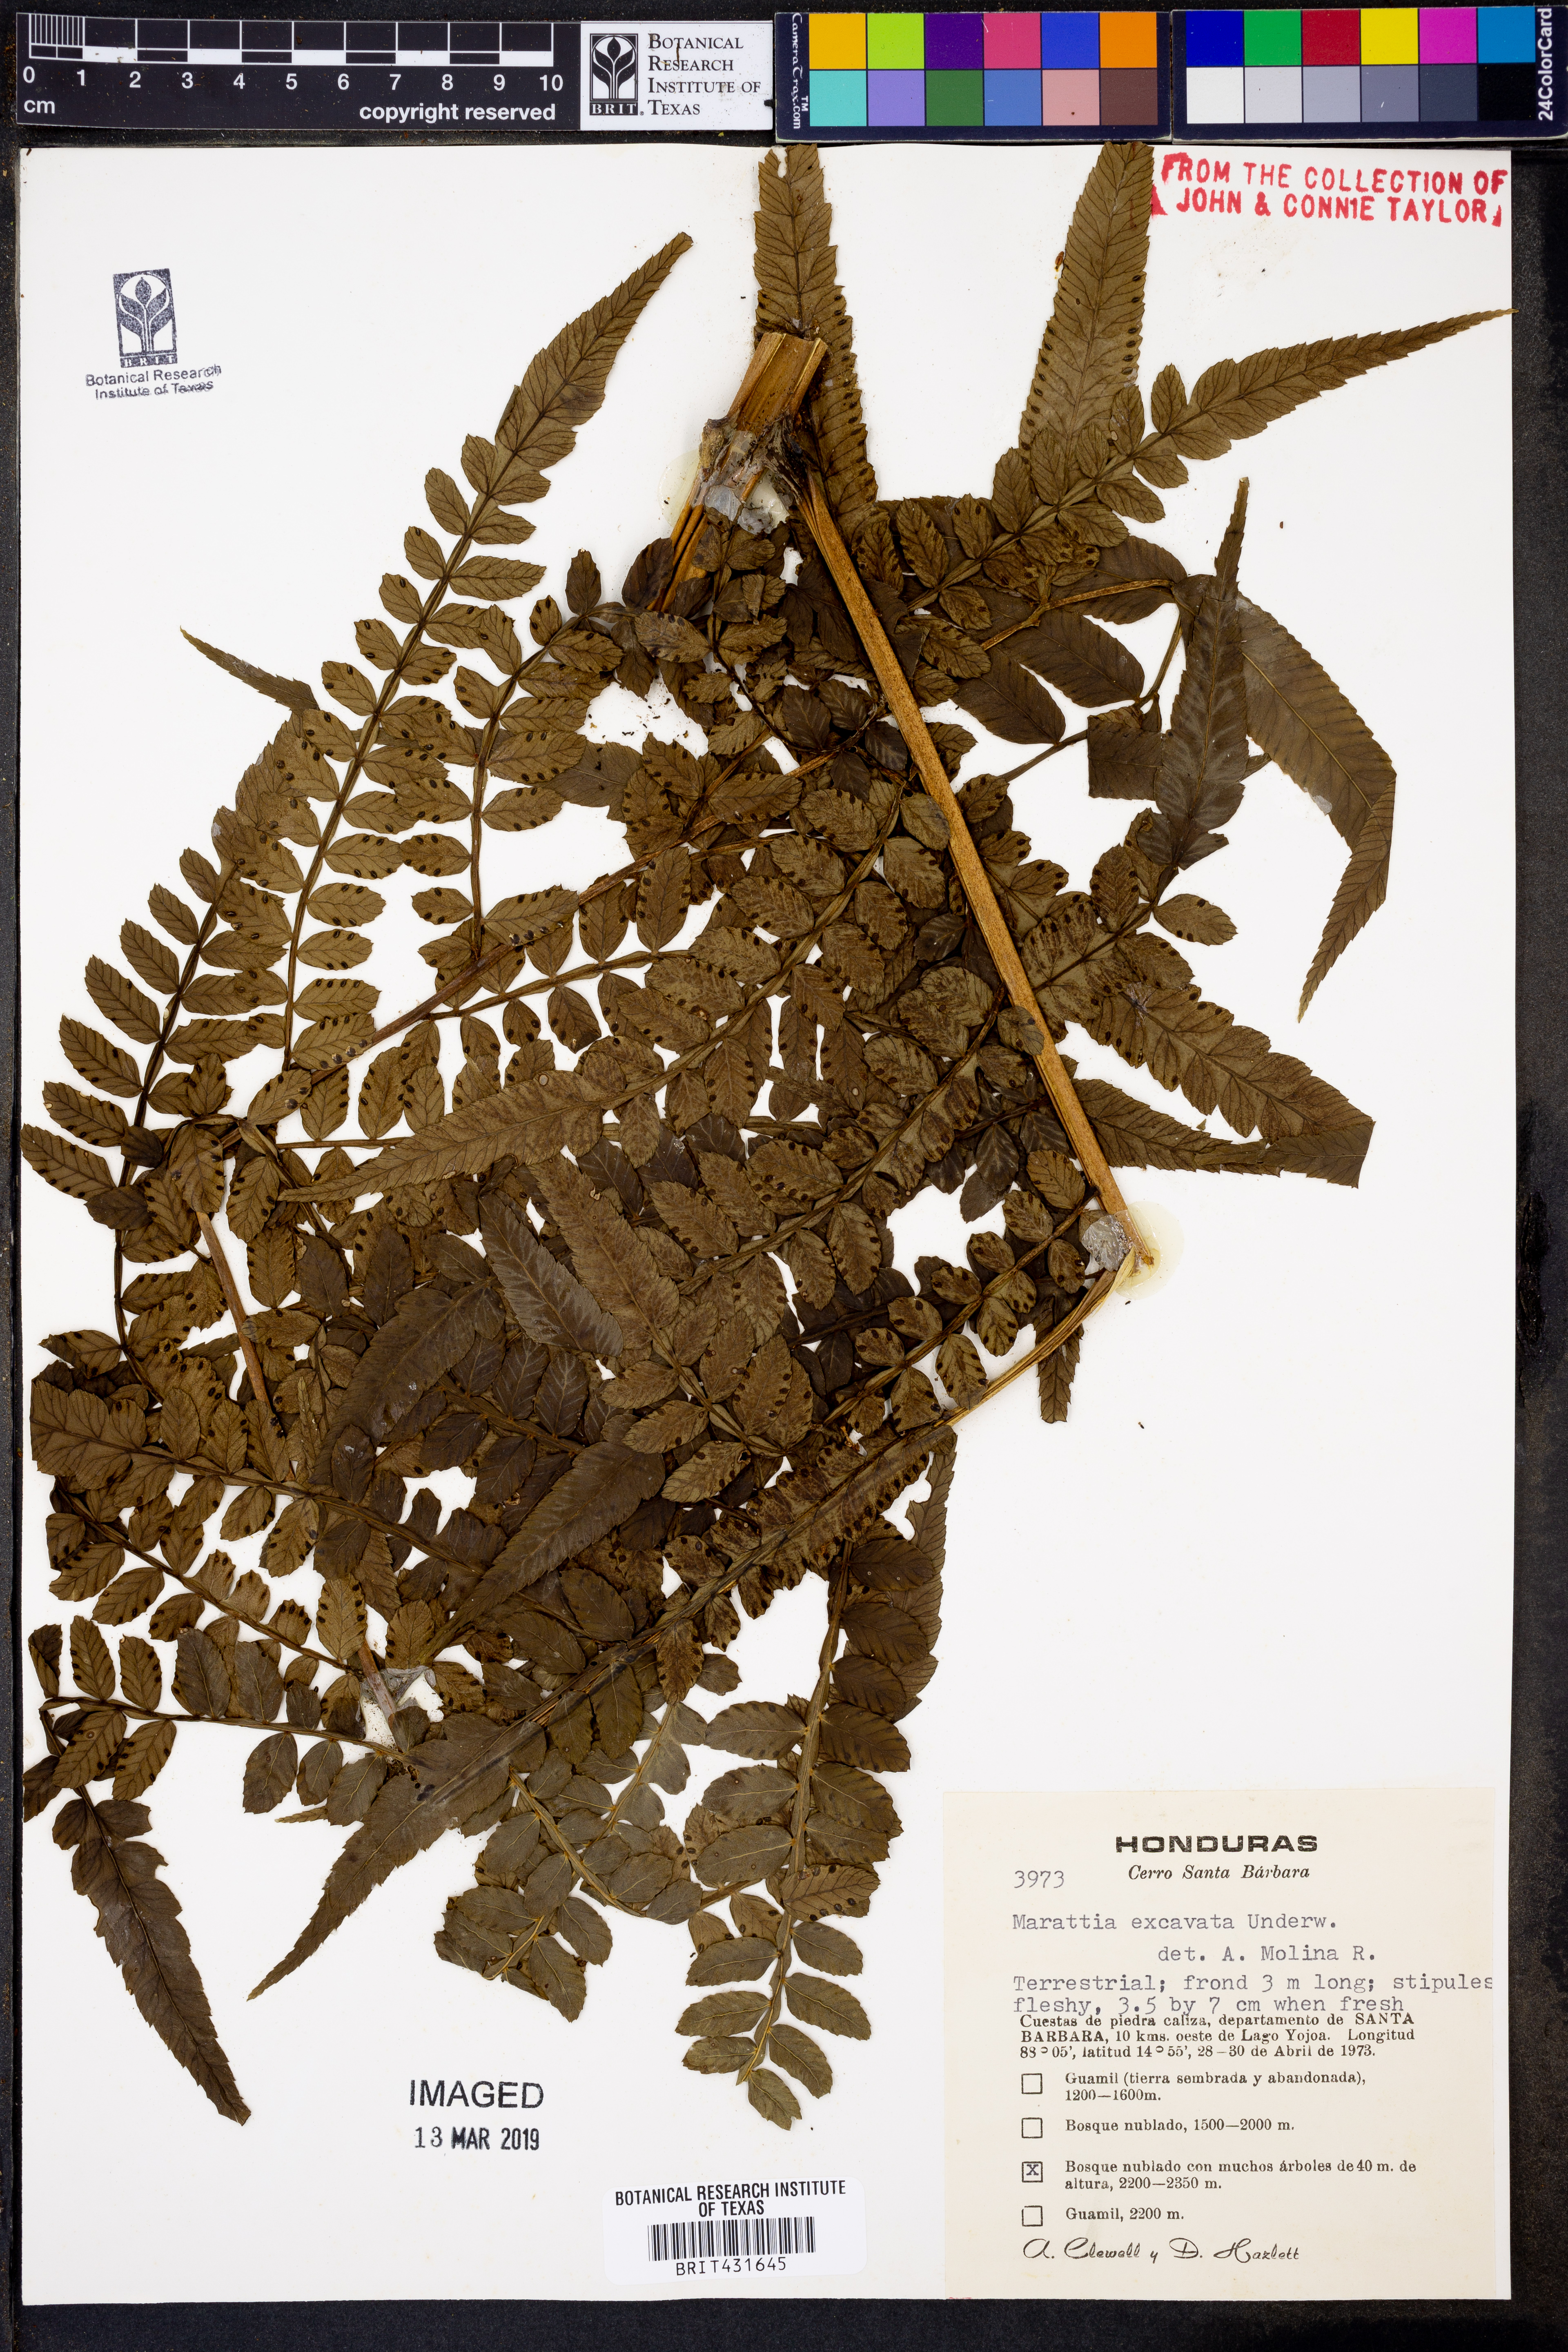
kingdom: Plantae
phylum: Tracheophyta
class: Polypodiopsida
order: Marattiales
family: Marattiaceae
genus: Marattia
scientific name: Marattia excavata
